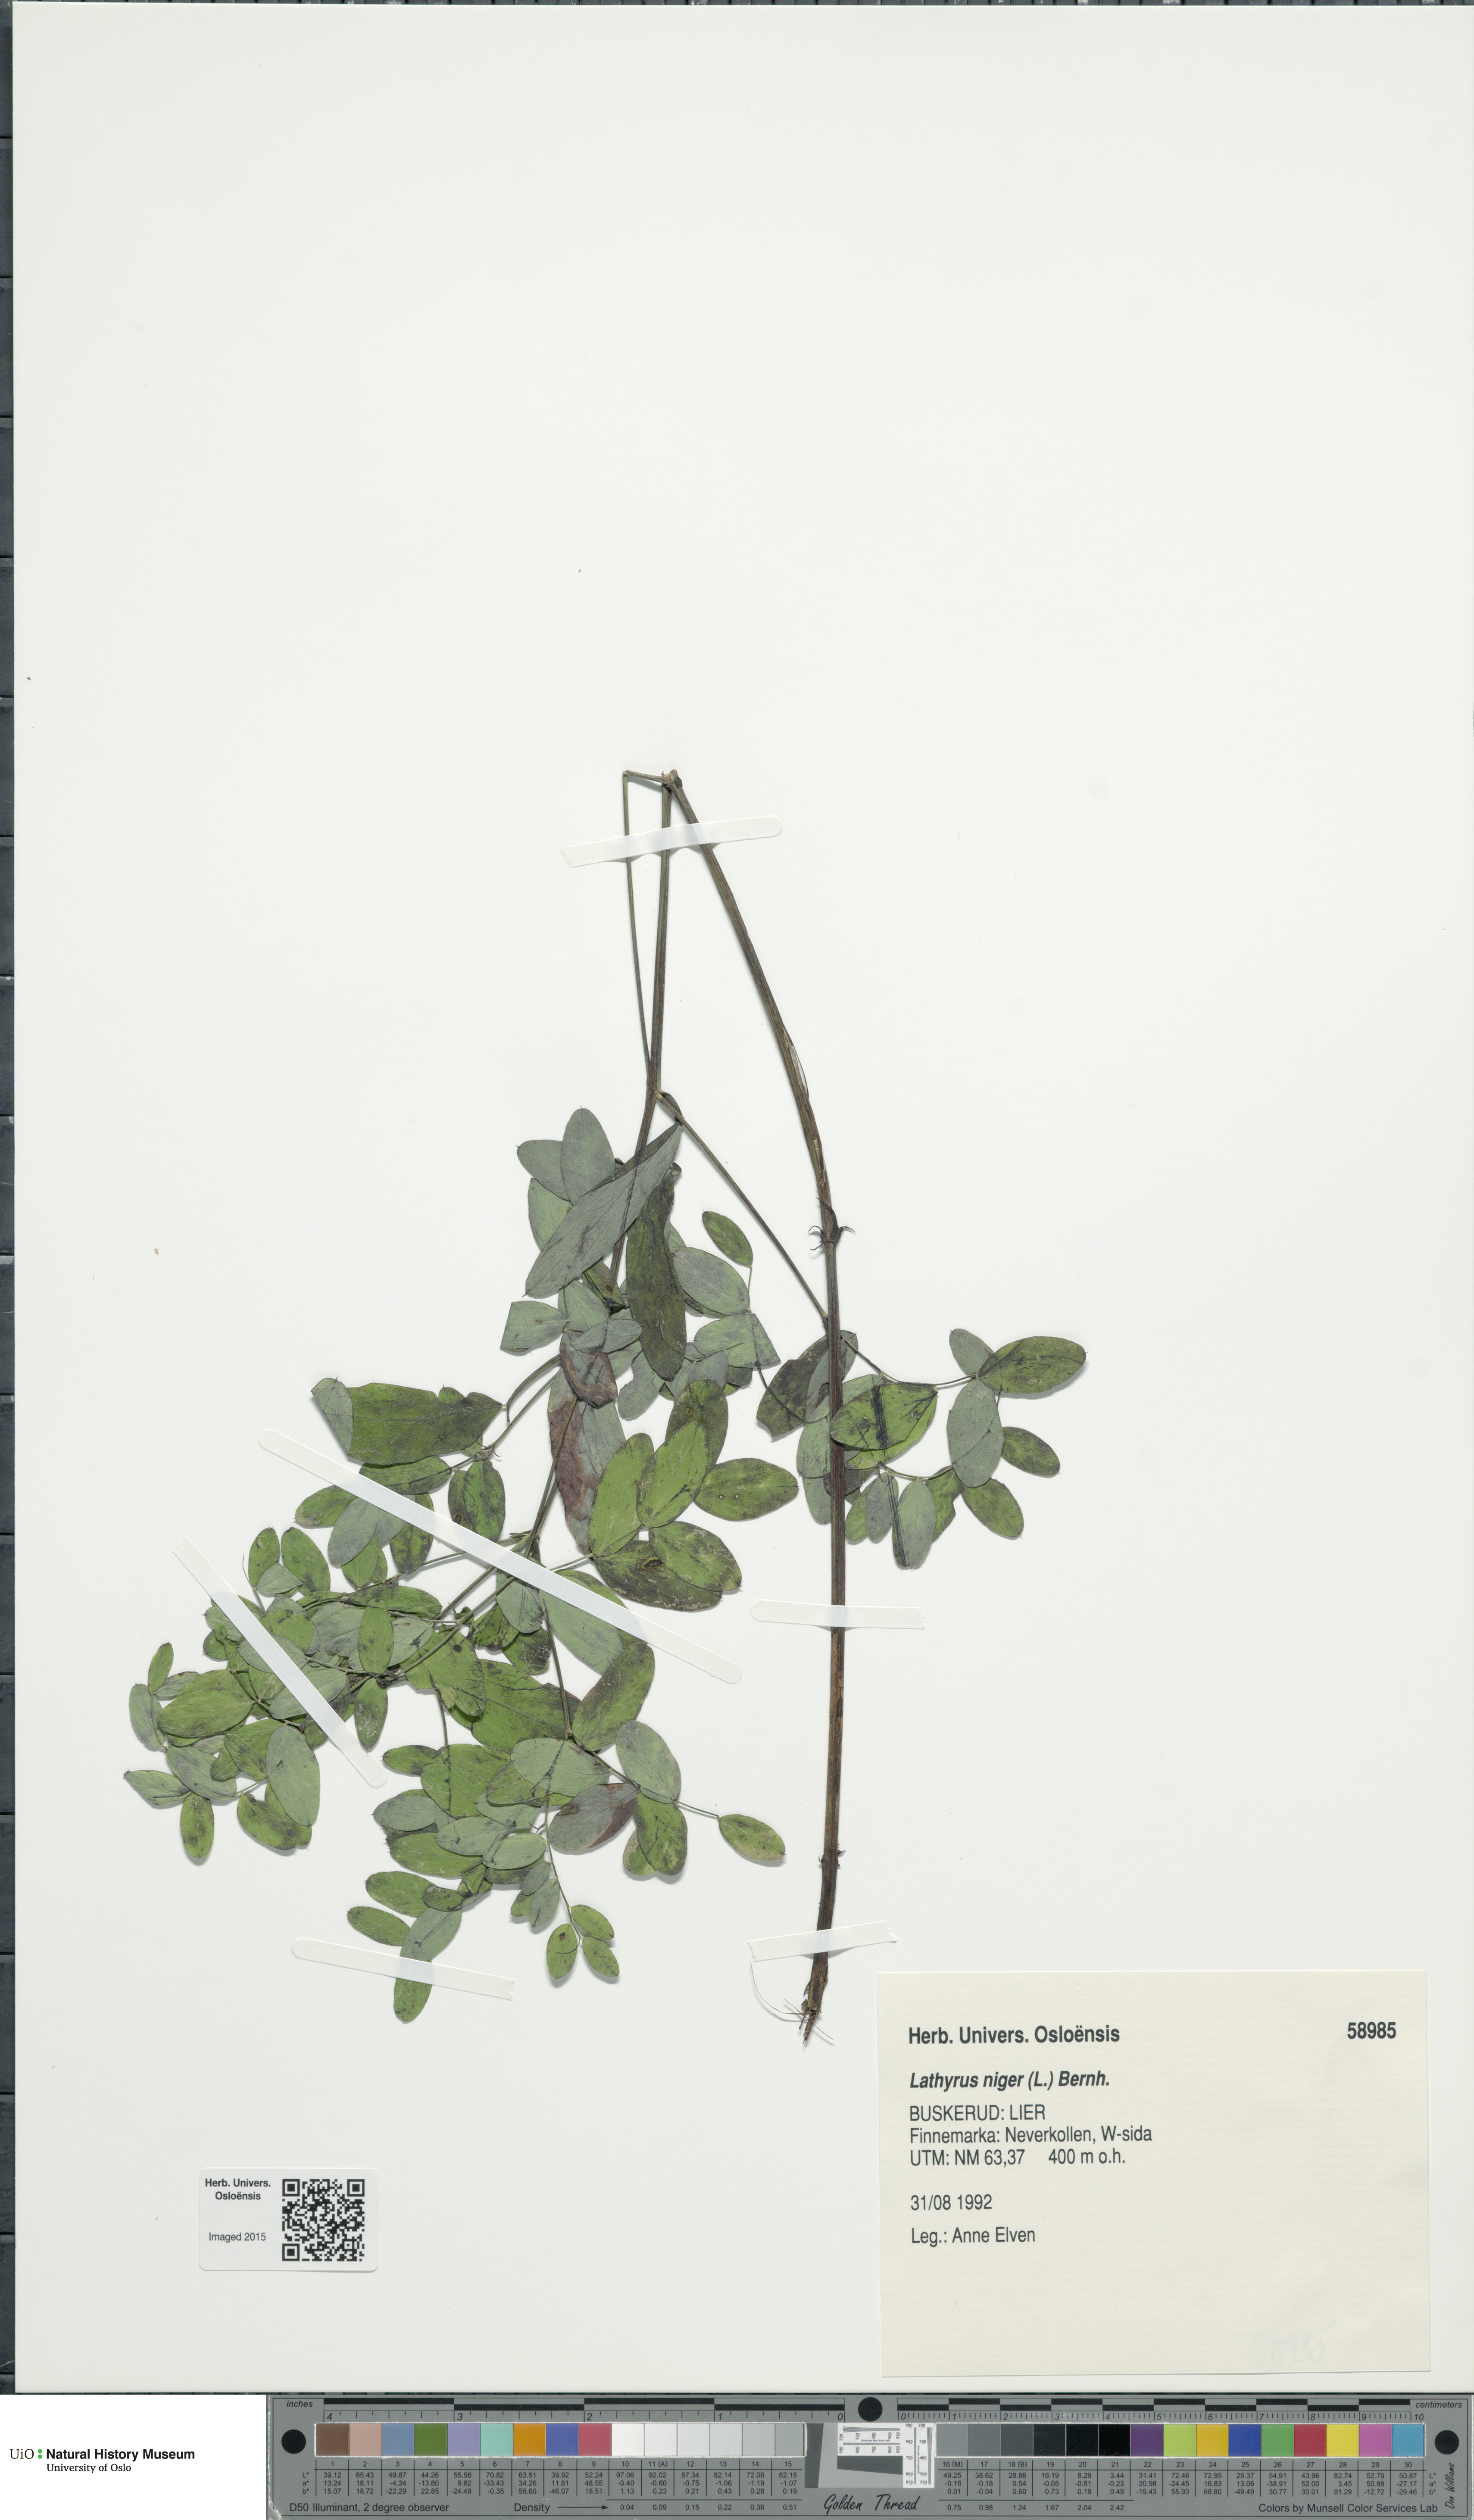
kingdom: Plantae
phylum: Tracheophyta
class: Magnoliopsida
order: Fabales
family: Fabaceae
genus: Lathyrus
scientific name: Lathyrus niger
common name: Black pea
